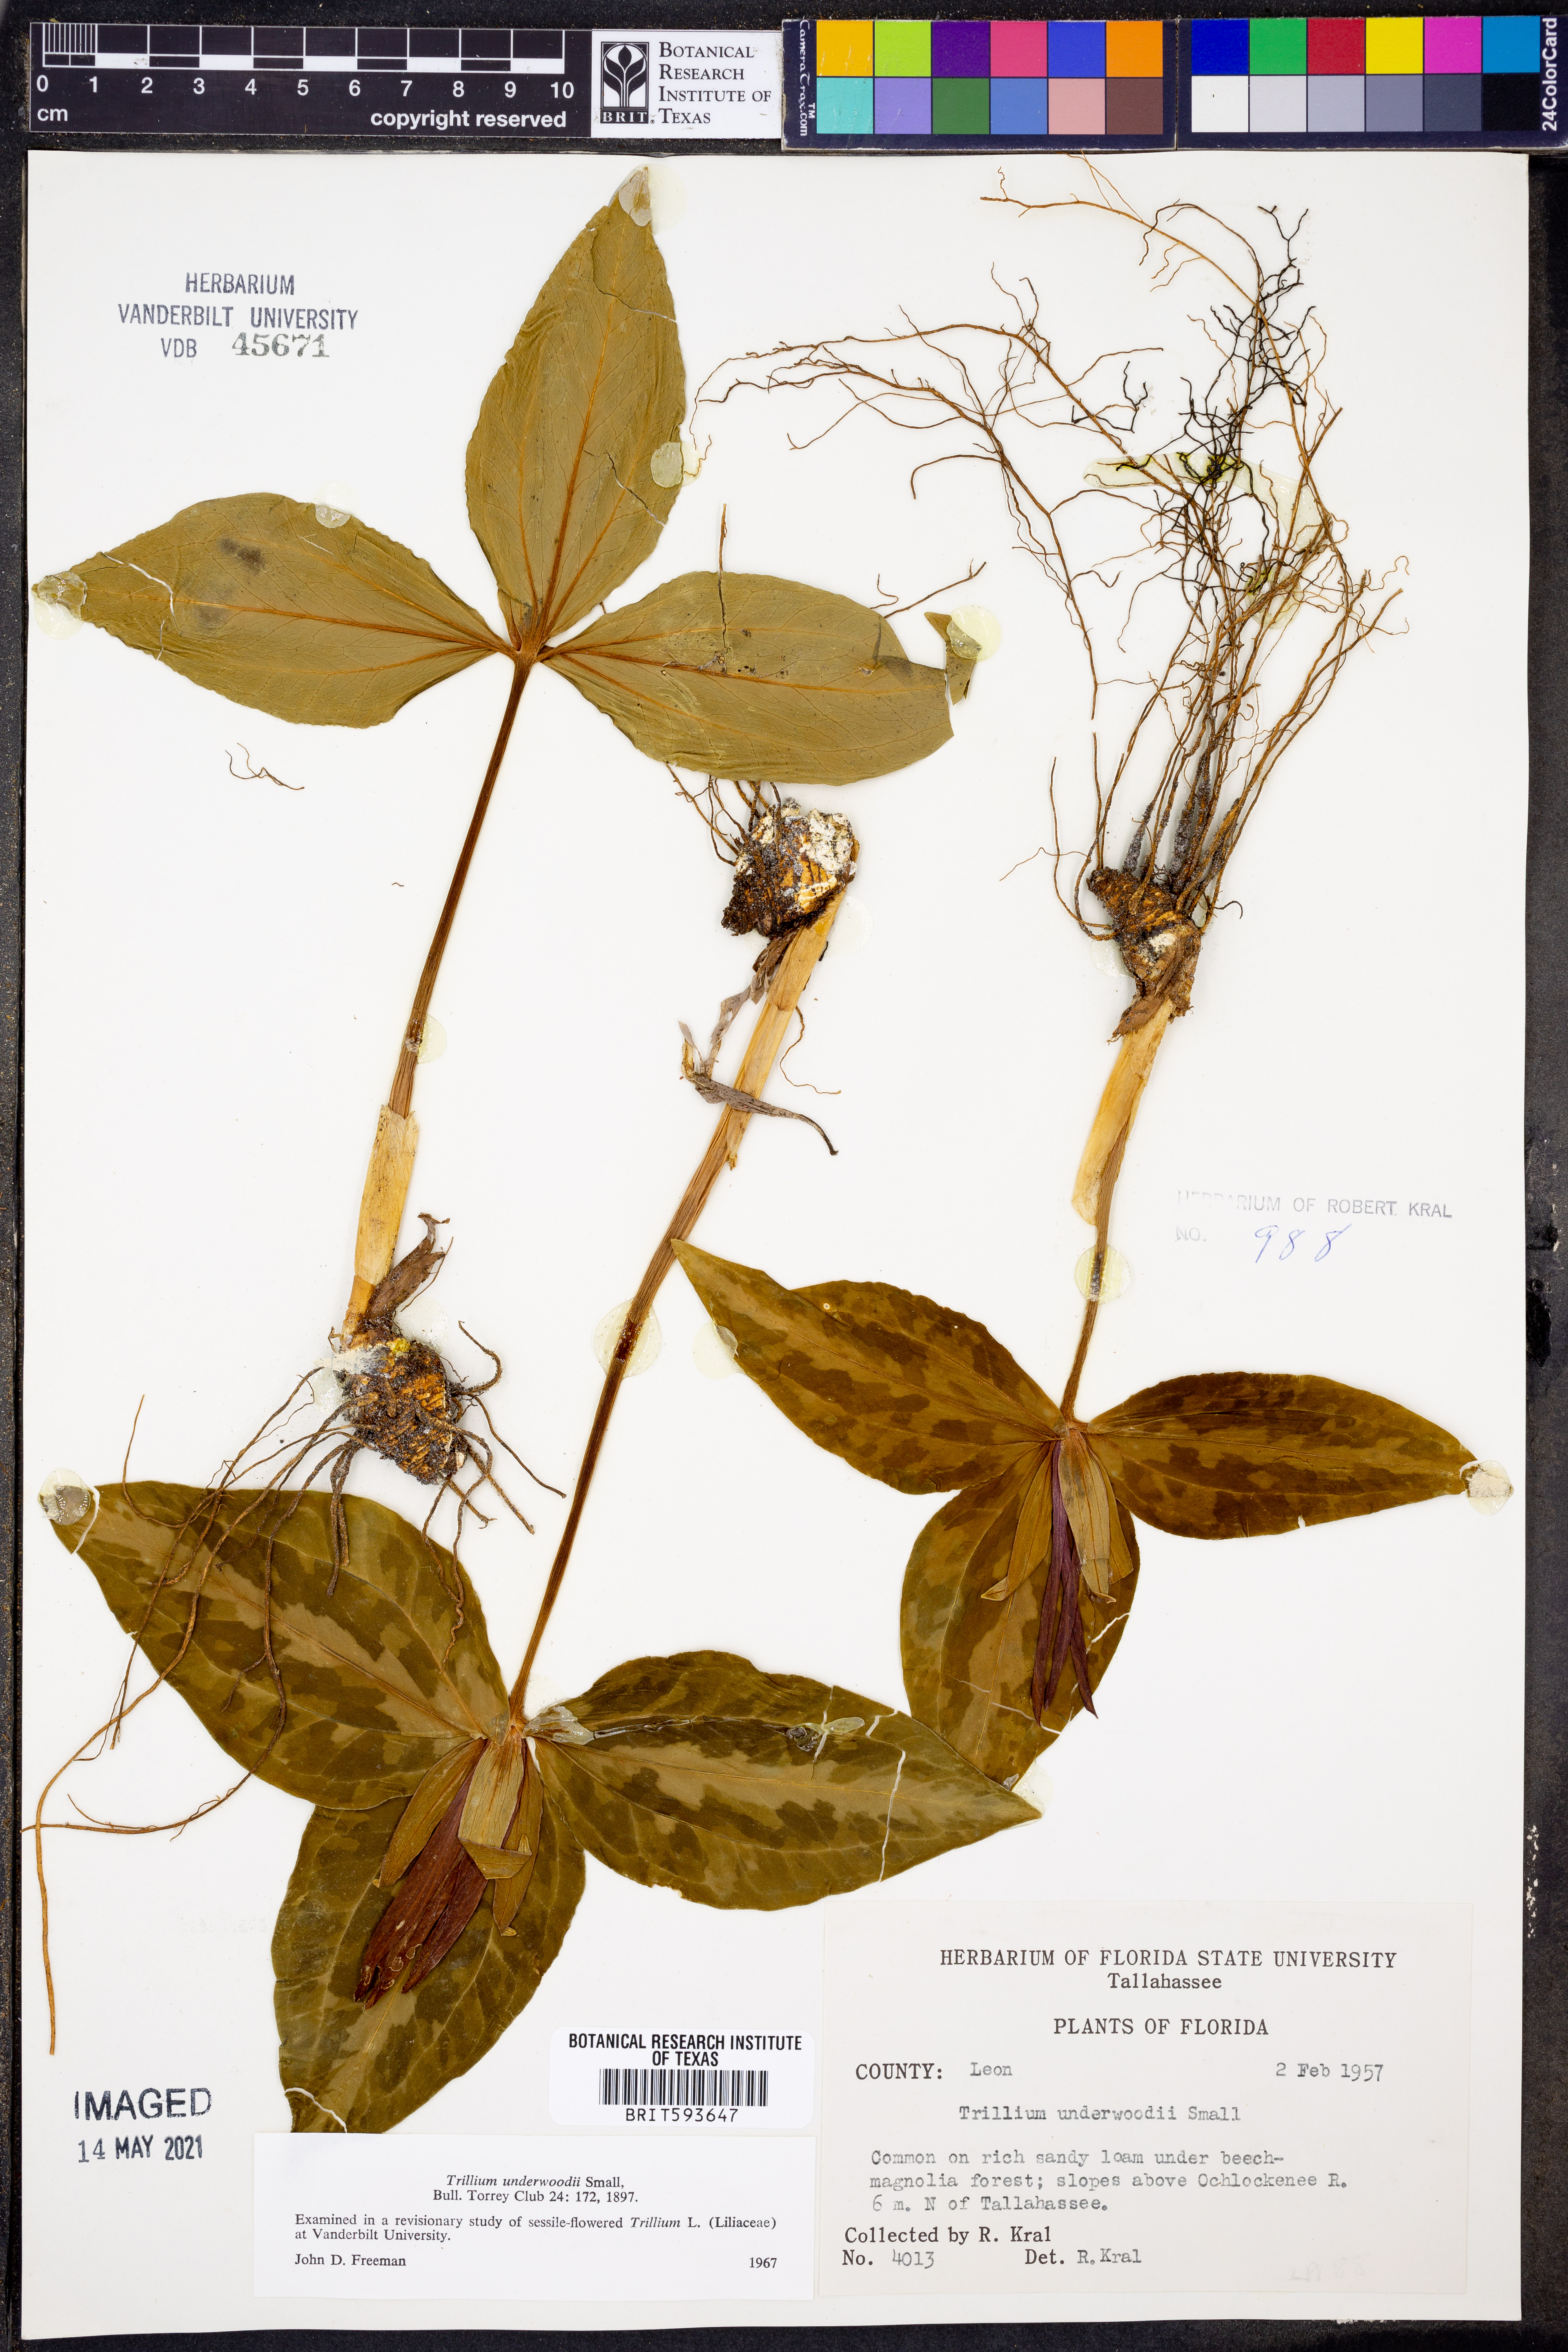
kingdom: Plantae
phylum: Tracheophyta
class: Liliopsida
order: Liliales
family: Melanthiaceae
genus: Trillium
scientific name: Trillium underwoodii
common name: Longbract wakerobin
